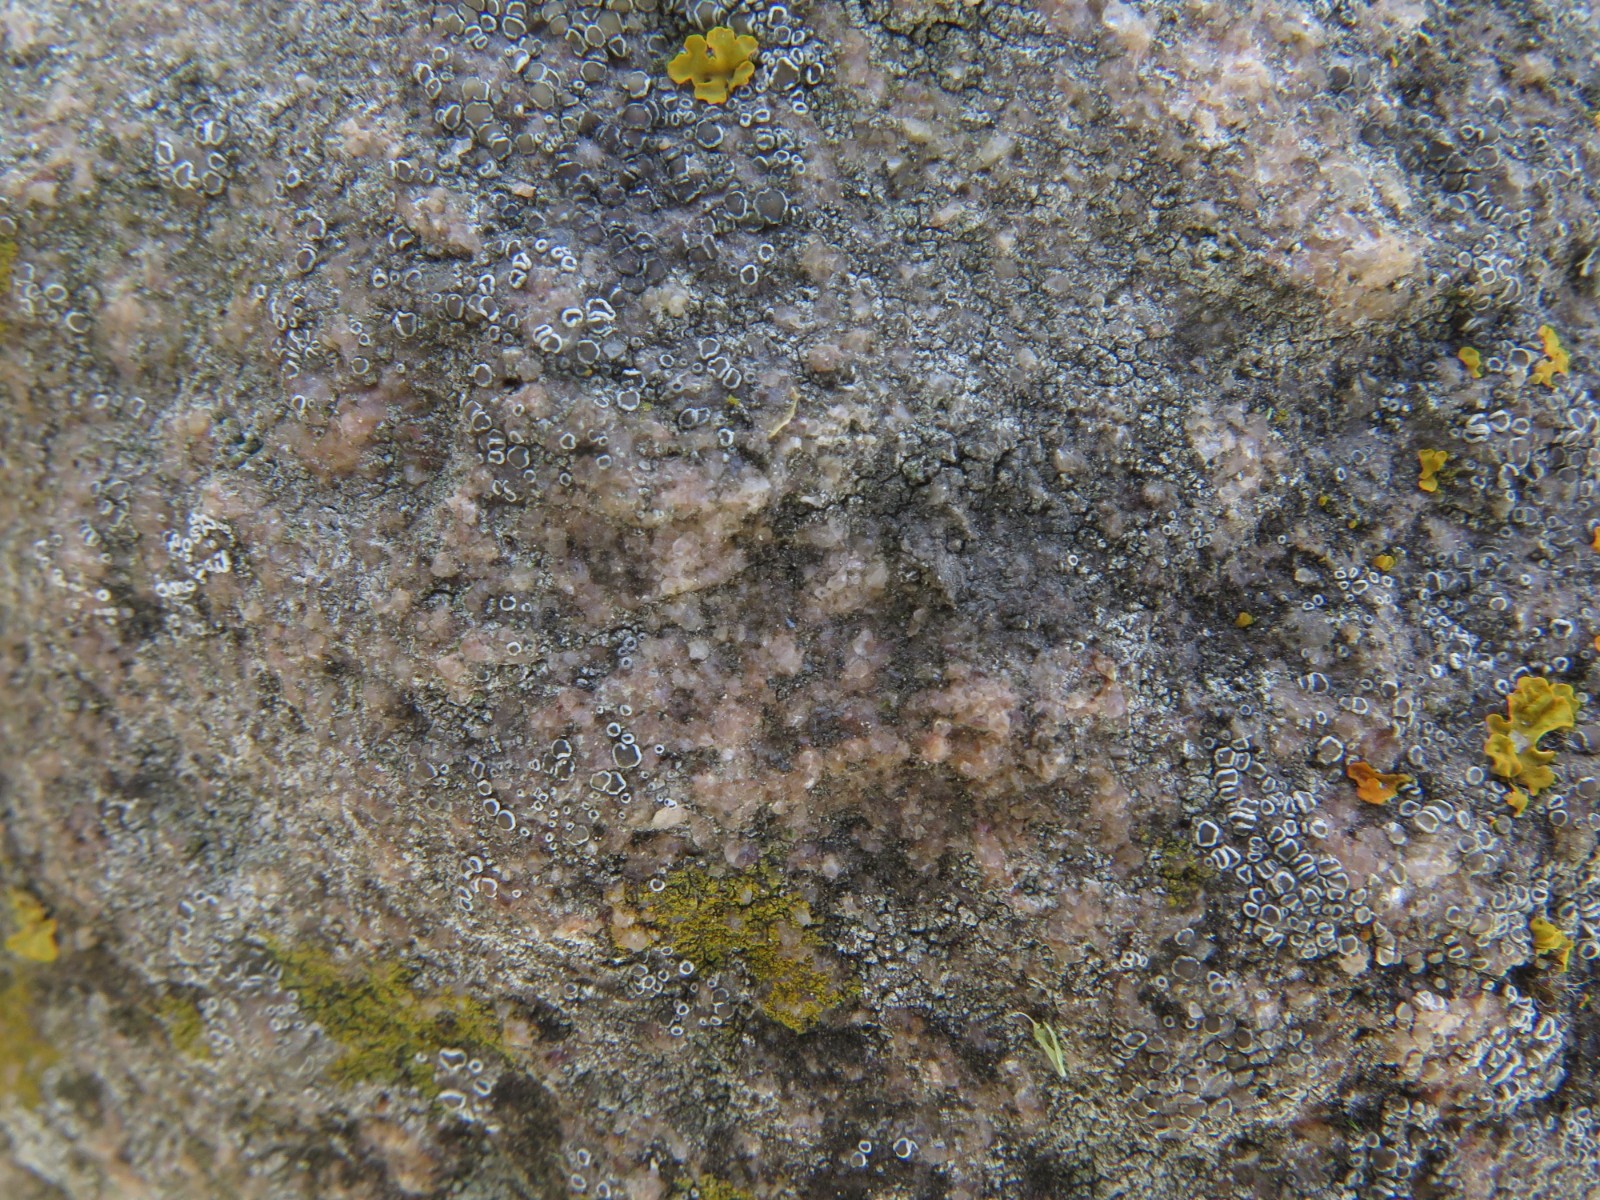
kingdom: Fungi
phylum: Ascomycota
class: Lecanoromycetes
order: Lecanorales
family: Lecanoraceae
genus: Polyozosia
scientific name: Polyozosia dispersa
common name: spredt kantskivelav
